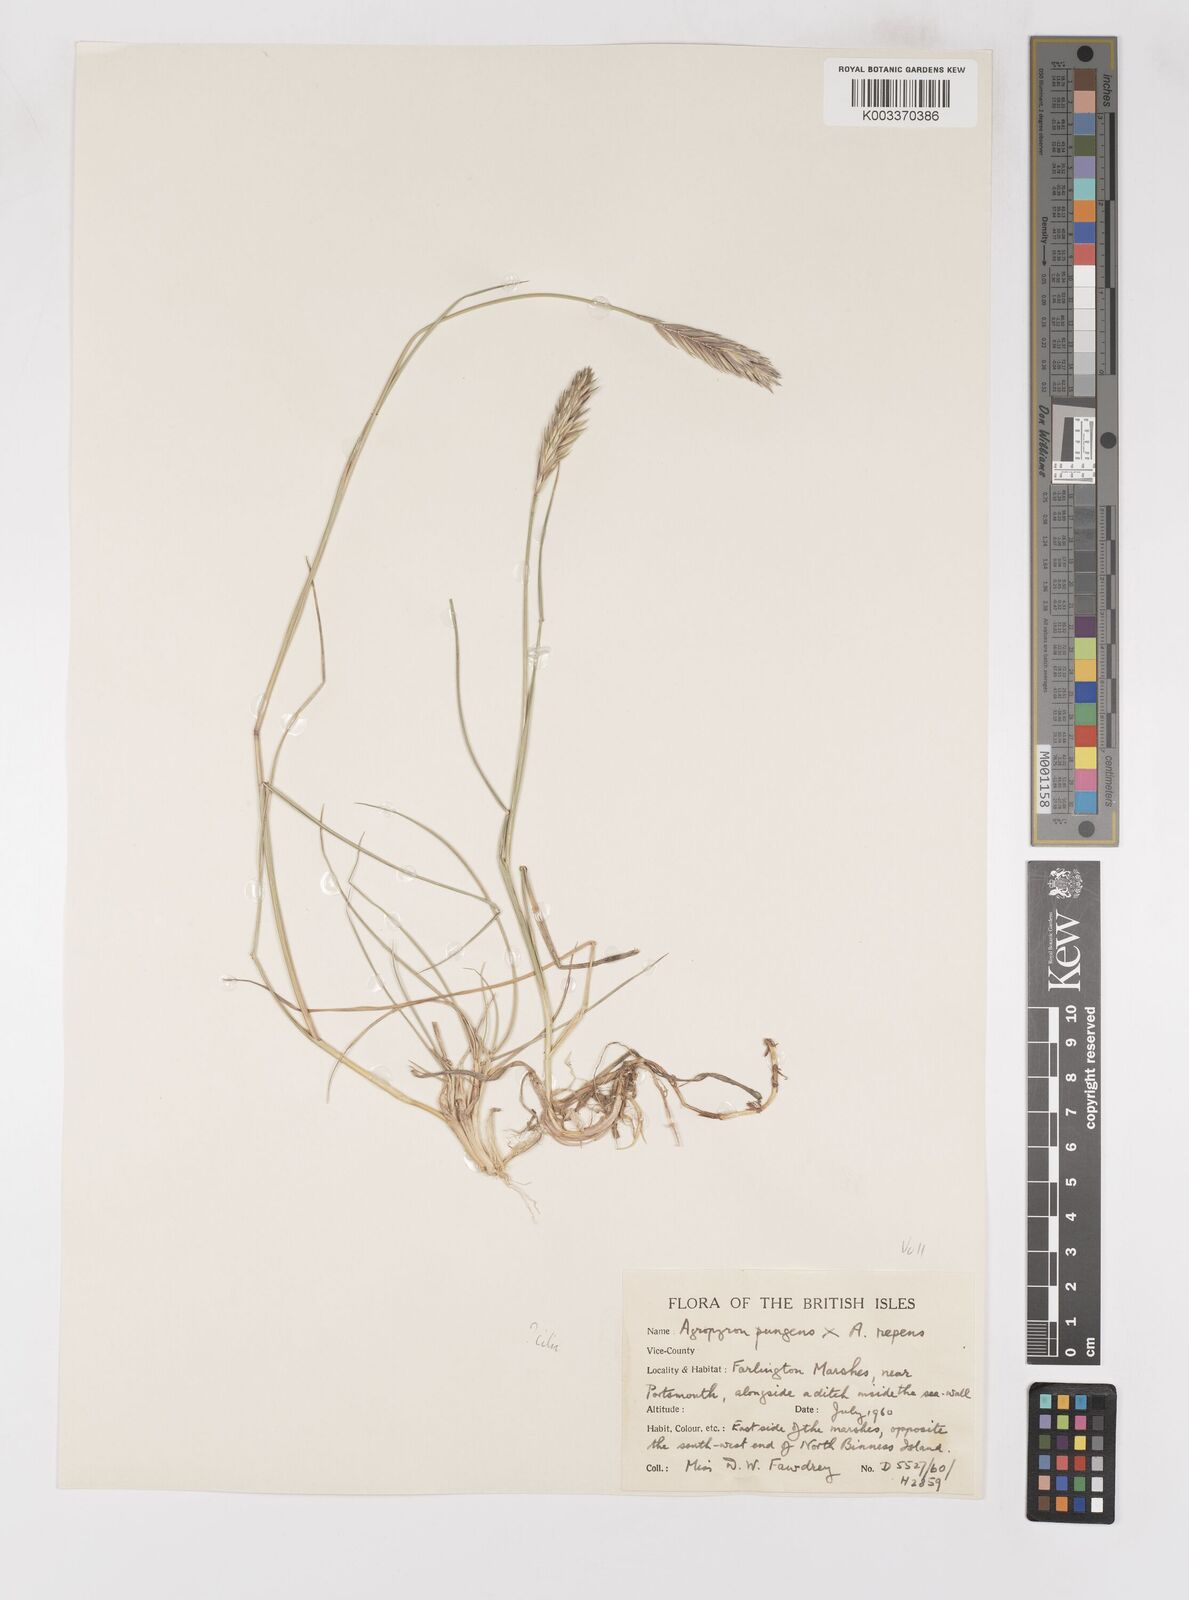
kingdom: Plantae
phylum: Tracheophyta
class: Liliopsida
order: Poales
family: Poaceae
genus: Elymus
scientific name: Elymus oliveri
